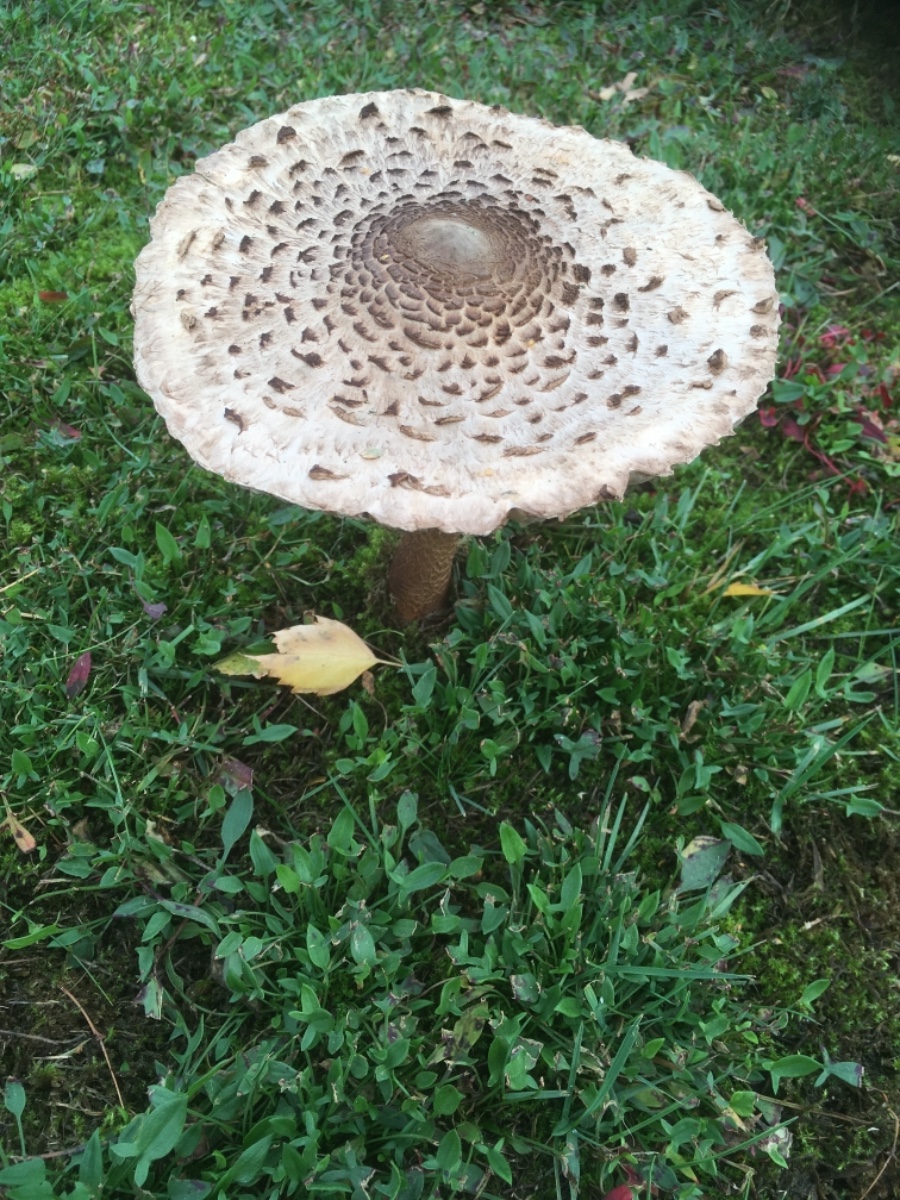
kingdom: Fungi
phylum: Basidiomycota
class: Agaricomycetes
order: Agaricales
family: Agaricaceae
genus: Macrolepiota
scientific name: Macrolepiota procera
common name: stor kæmpeparasolhat
